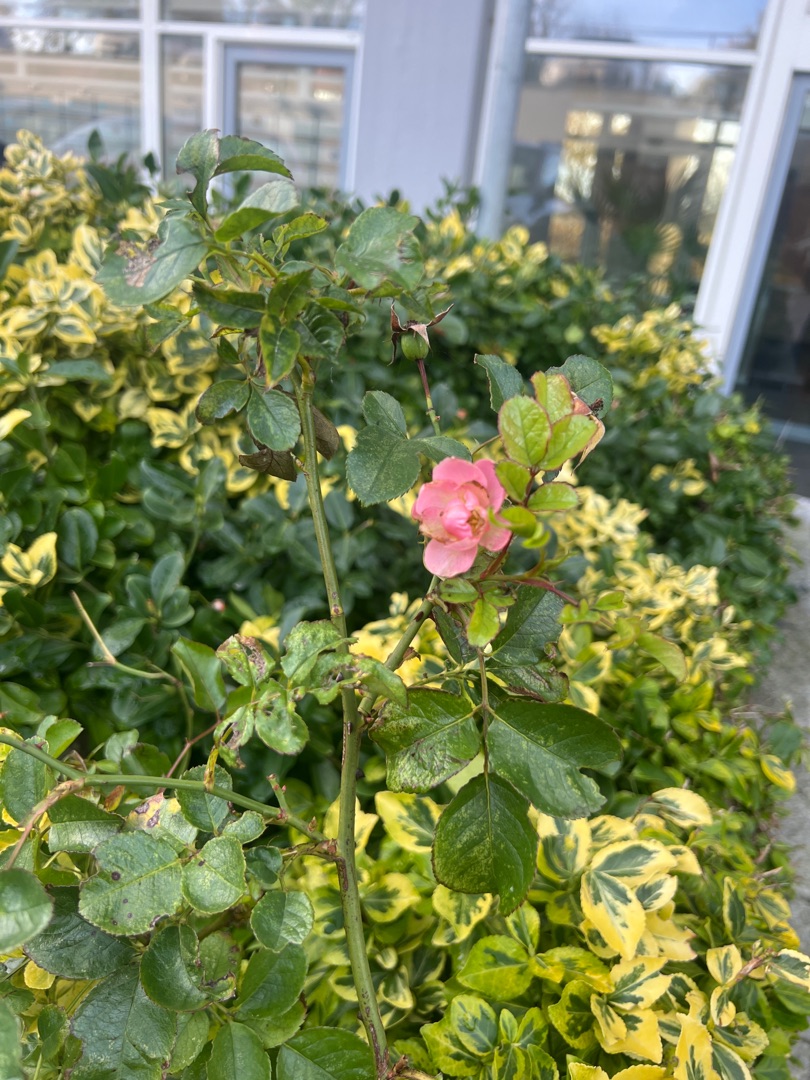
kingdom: Plantae
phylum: Tracheophyta
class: Magnoliopsida
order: Rosales
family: Rosaceae
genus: Rosa
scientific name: Rosa
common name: Roseslægten
